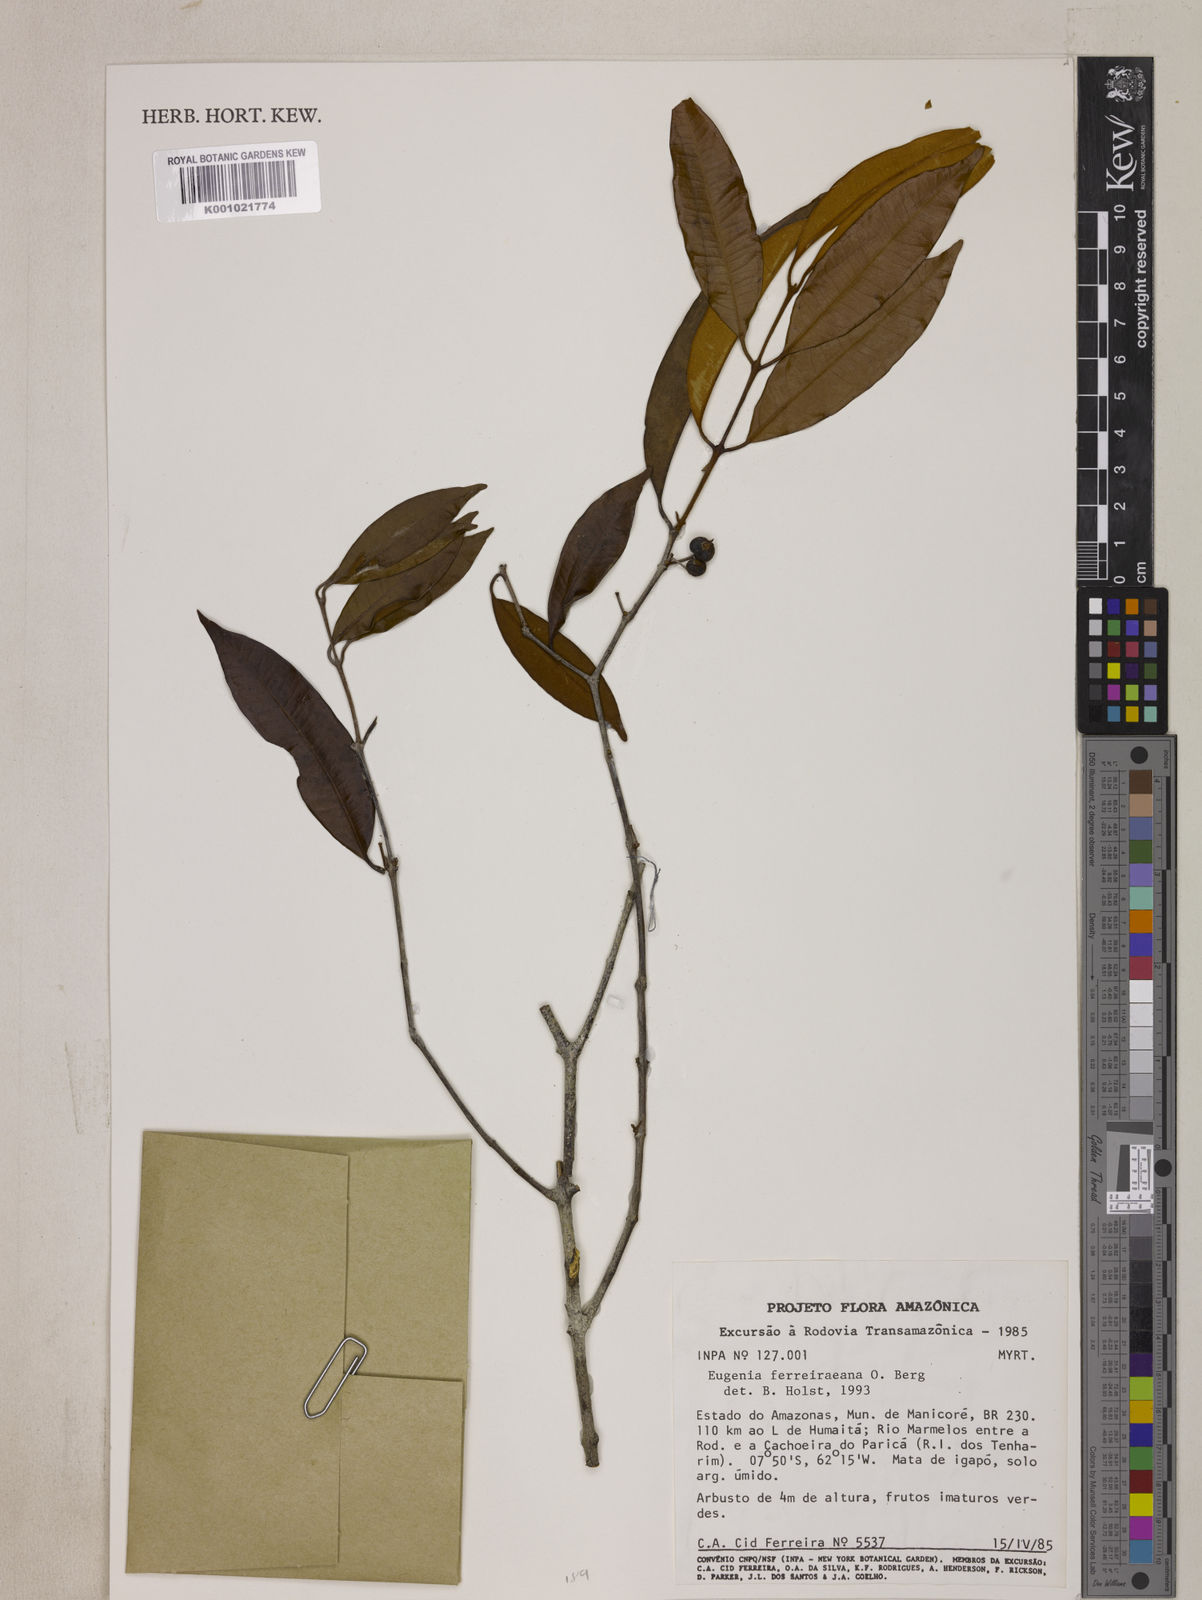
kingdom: Plantae
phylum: Tracheophyta
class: Magnoliopsida
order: Myrtales
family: Myrtaceae
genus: Eugenia
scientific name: Eugenia ferreiraeana
